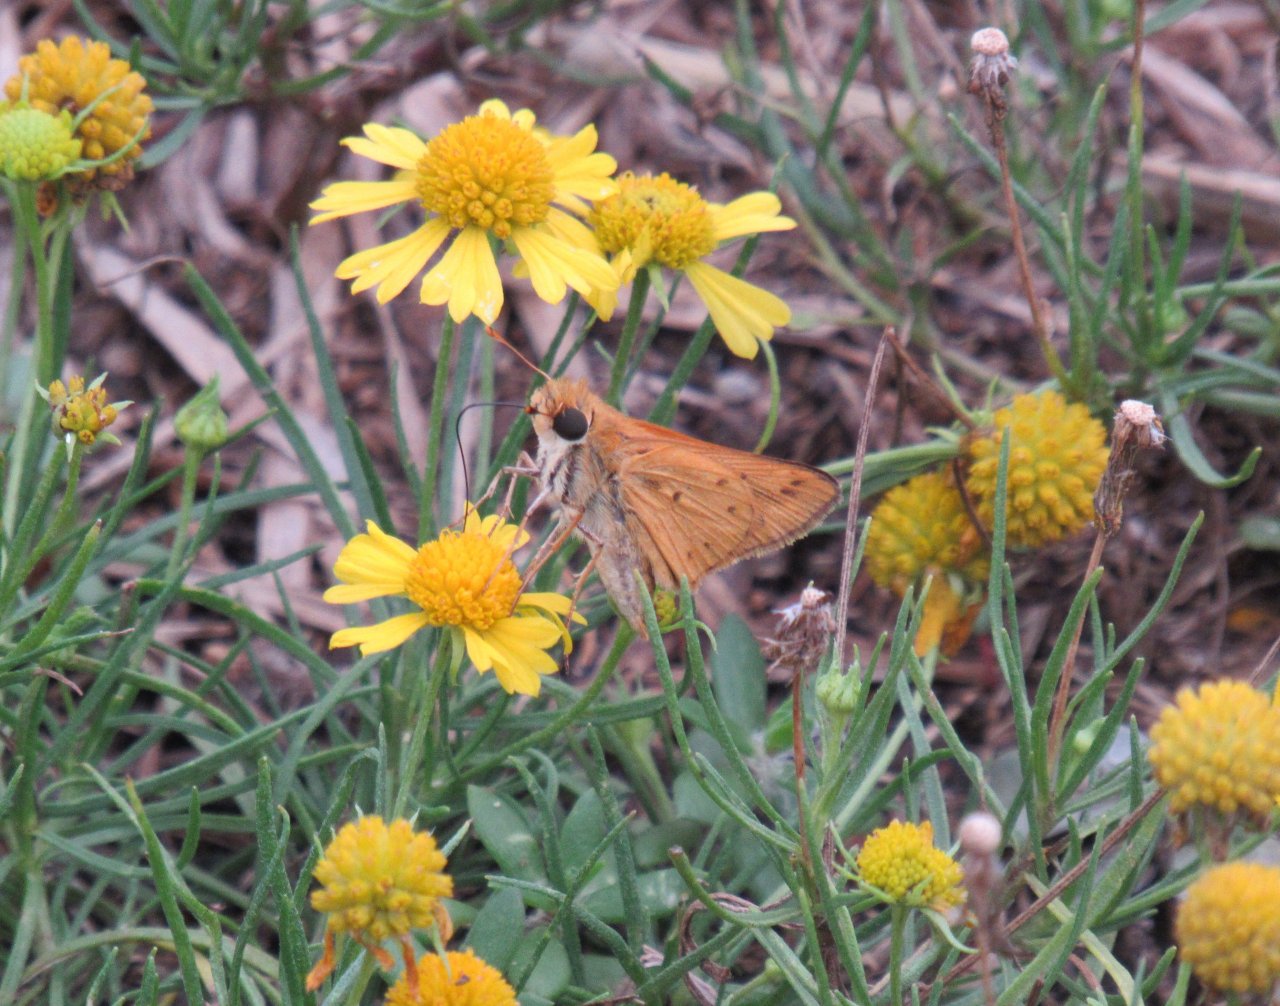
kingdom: Animalia
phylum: Arthropoda
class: Insecta
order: Lepidoptera
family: Hesperiidae
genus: Hylephila
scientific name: Hylephila phyleus
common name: Fiery Skipper
